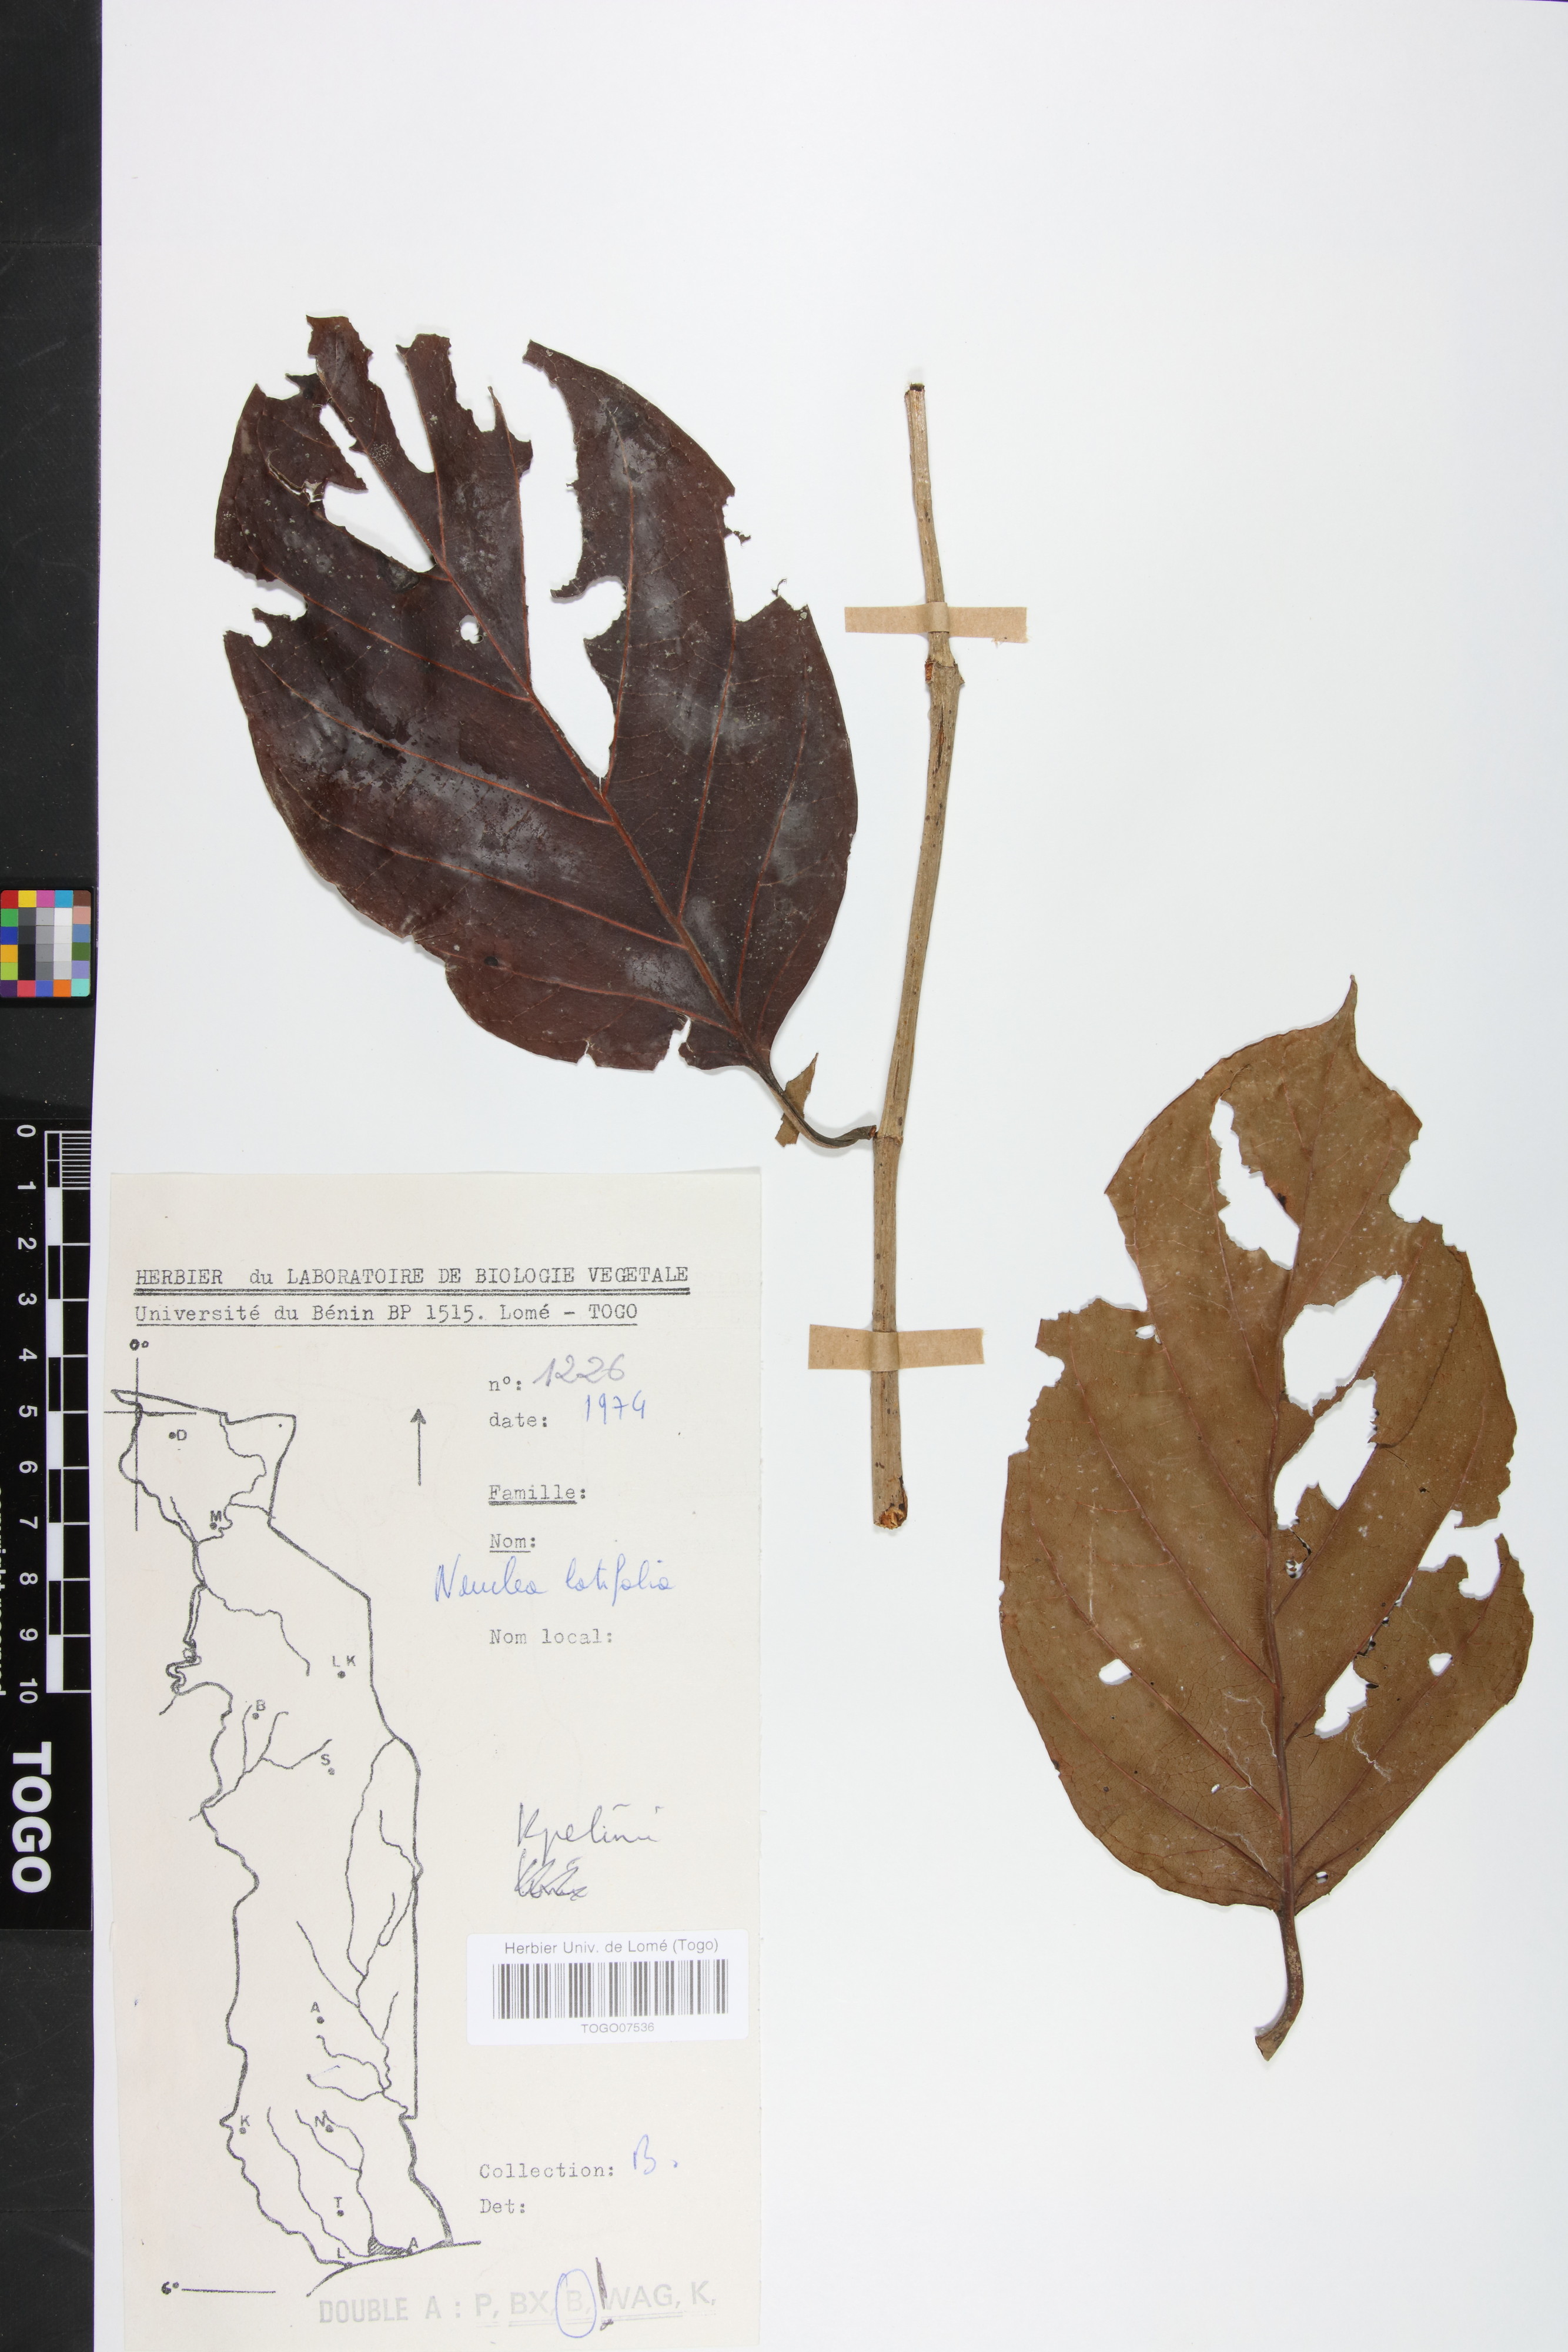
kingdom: Plantae
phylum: Tracheophyta
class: Magnoliopsida
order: Gentianales
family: Rubiaceae
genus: Nauclea
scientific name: Nauclea latifolia
